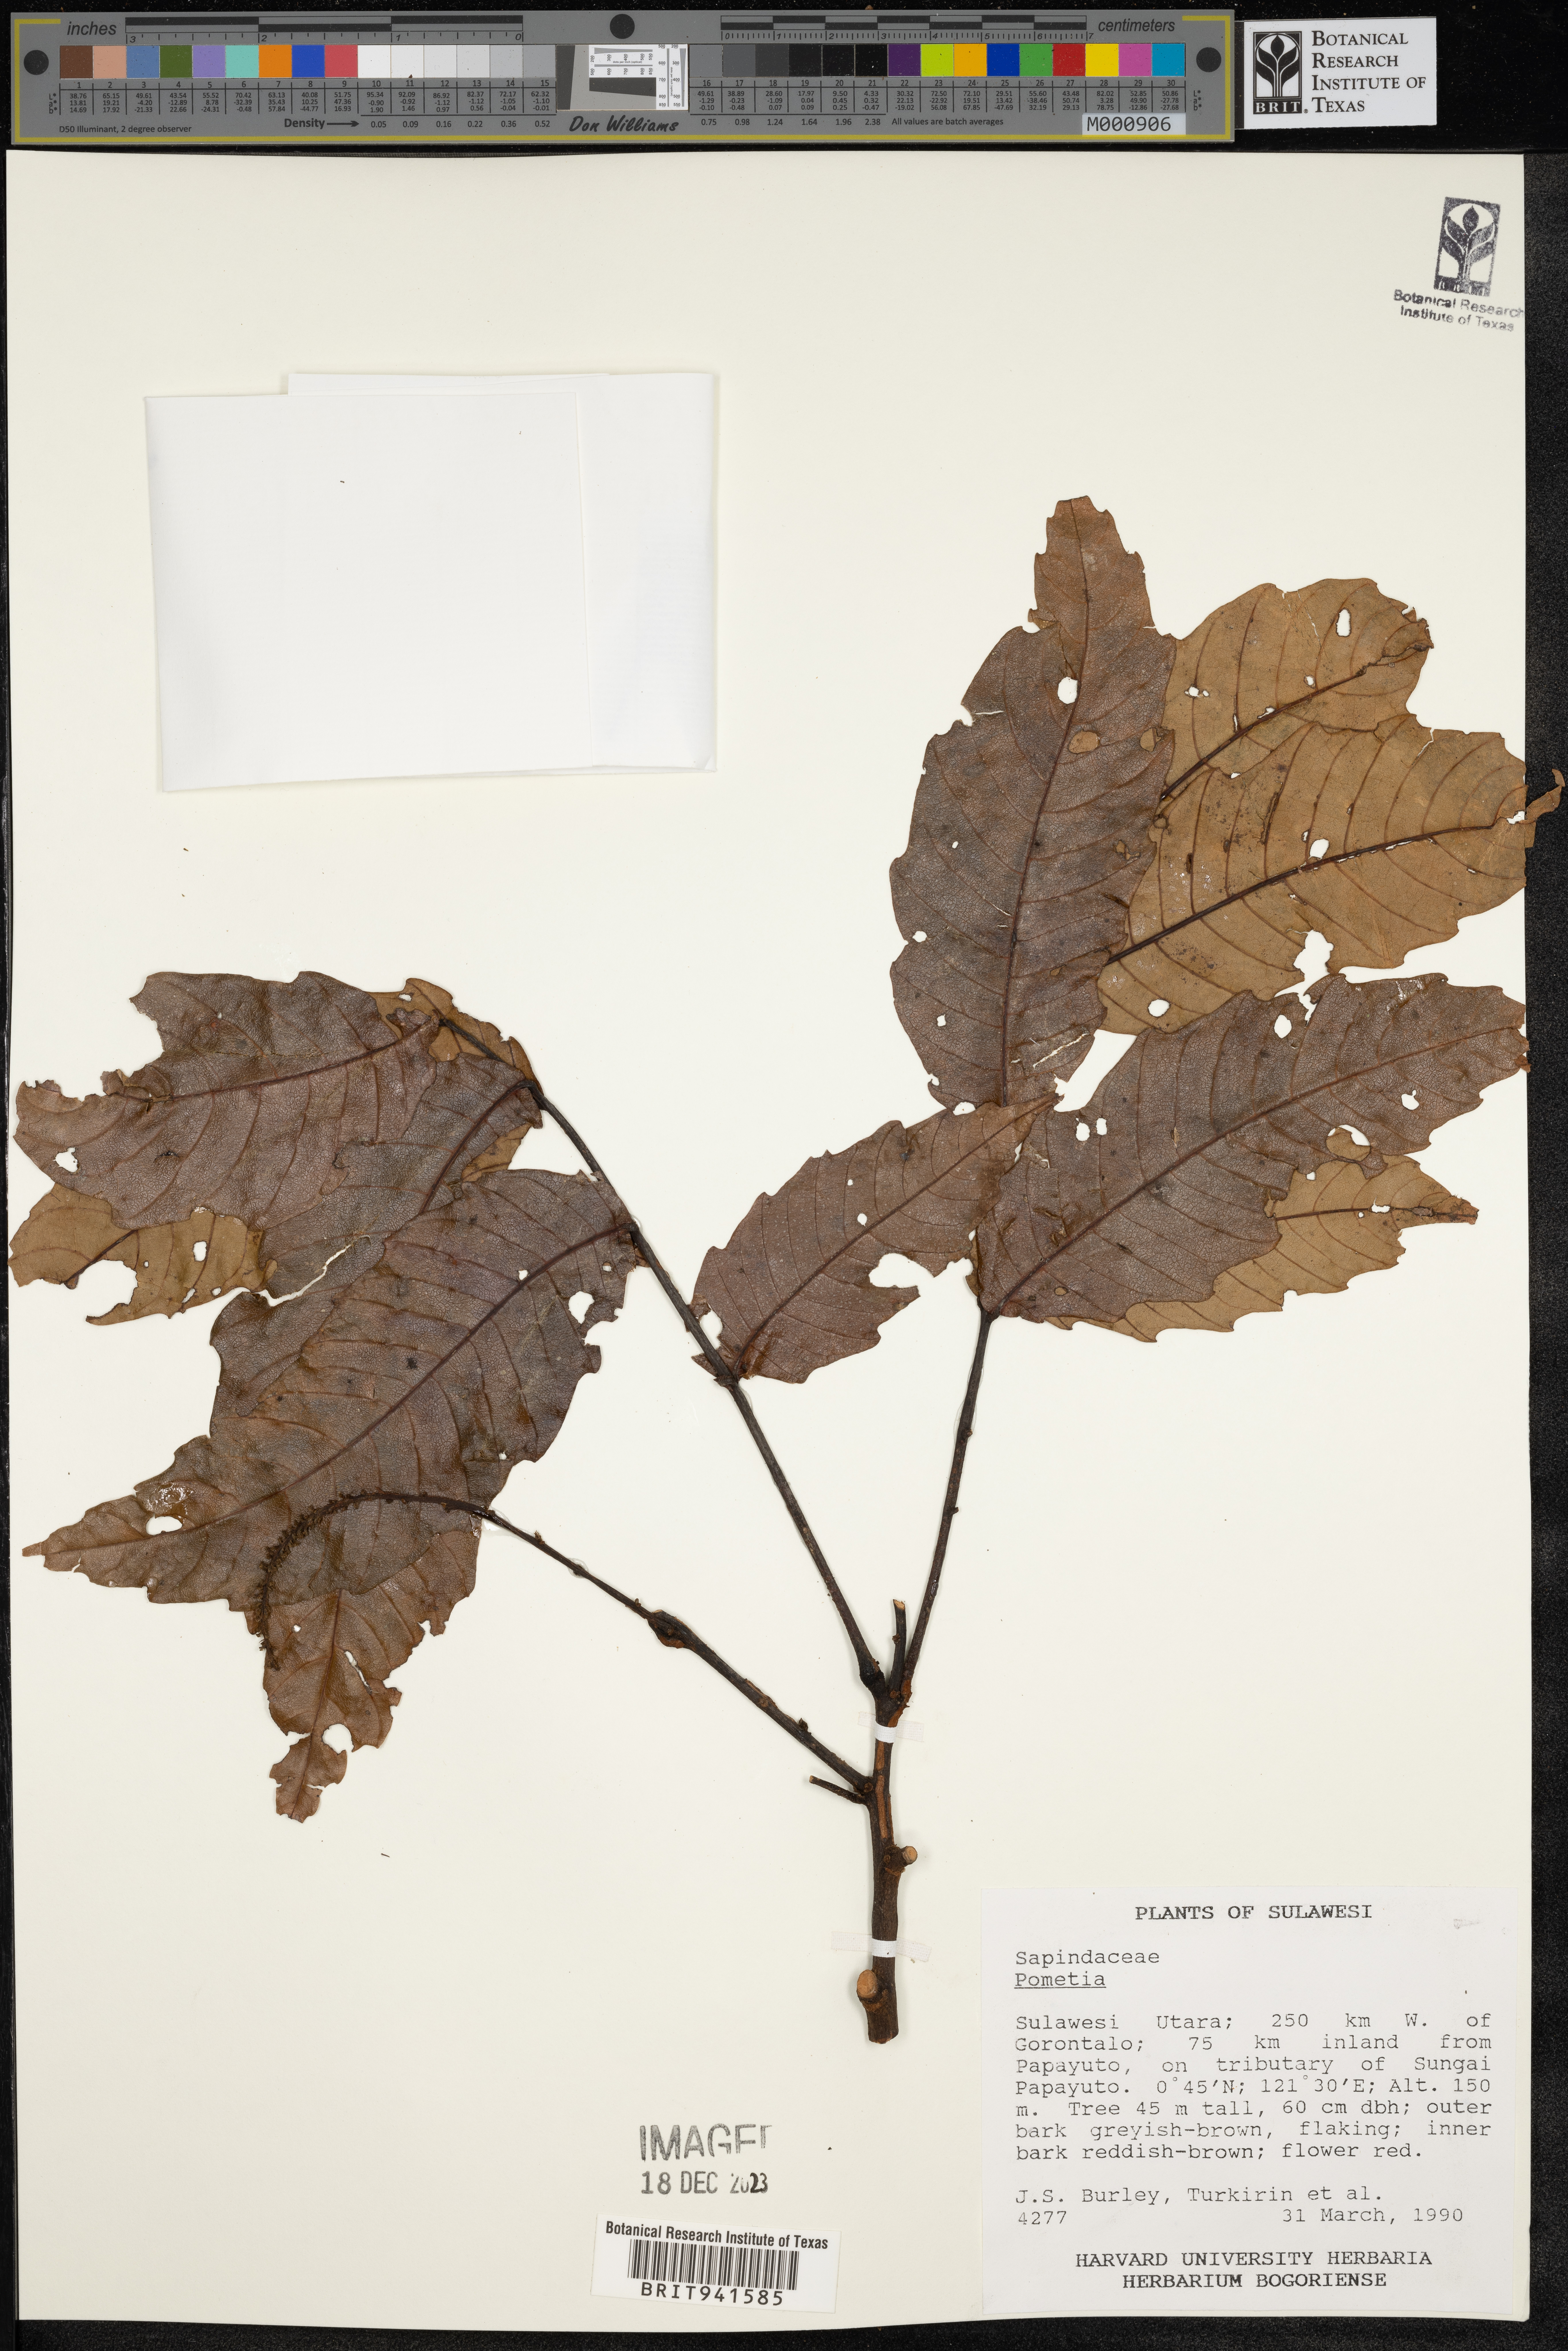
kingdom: Plantae
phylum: Tracheophyta
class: Magnoliopsida
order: Sapindales
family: Sapindaceae
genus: Pometia
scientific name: Pometia
